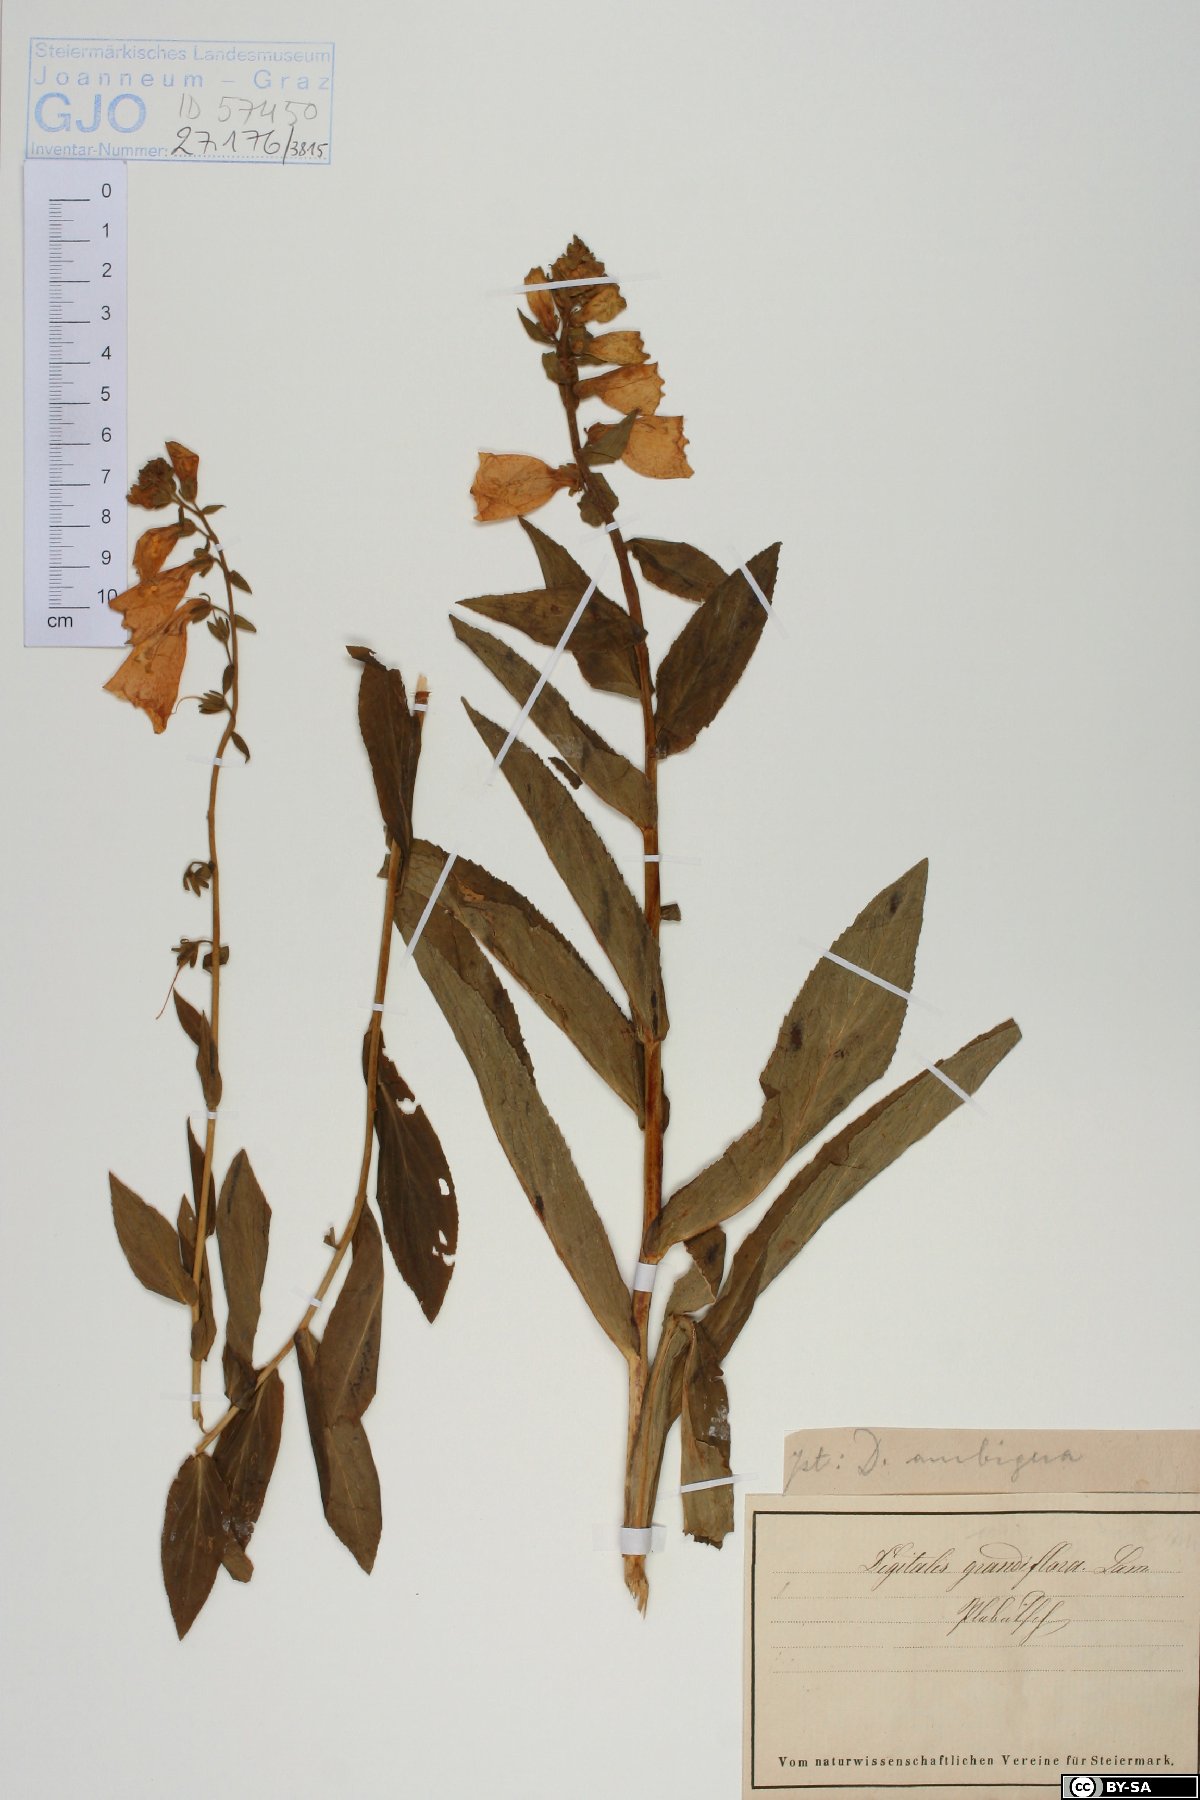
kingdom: Plantae
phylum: Tracheophyta
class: Magnoliopsida
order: Lamiales
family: Plantaginaceae
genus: Digitalis
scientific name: Digitalis grandiflora
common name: Yellow foxglove
